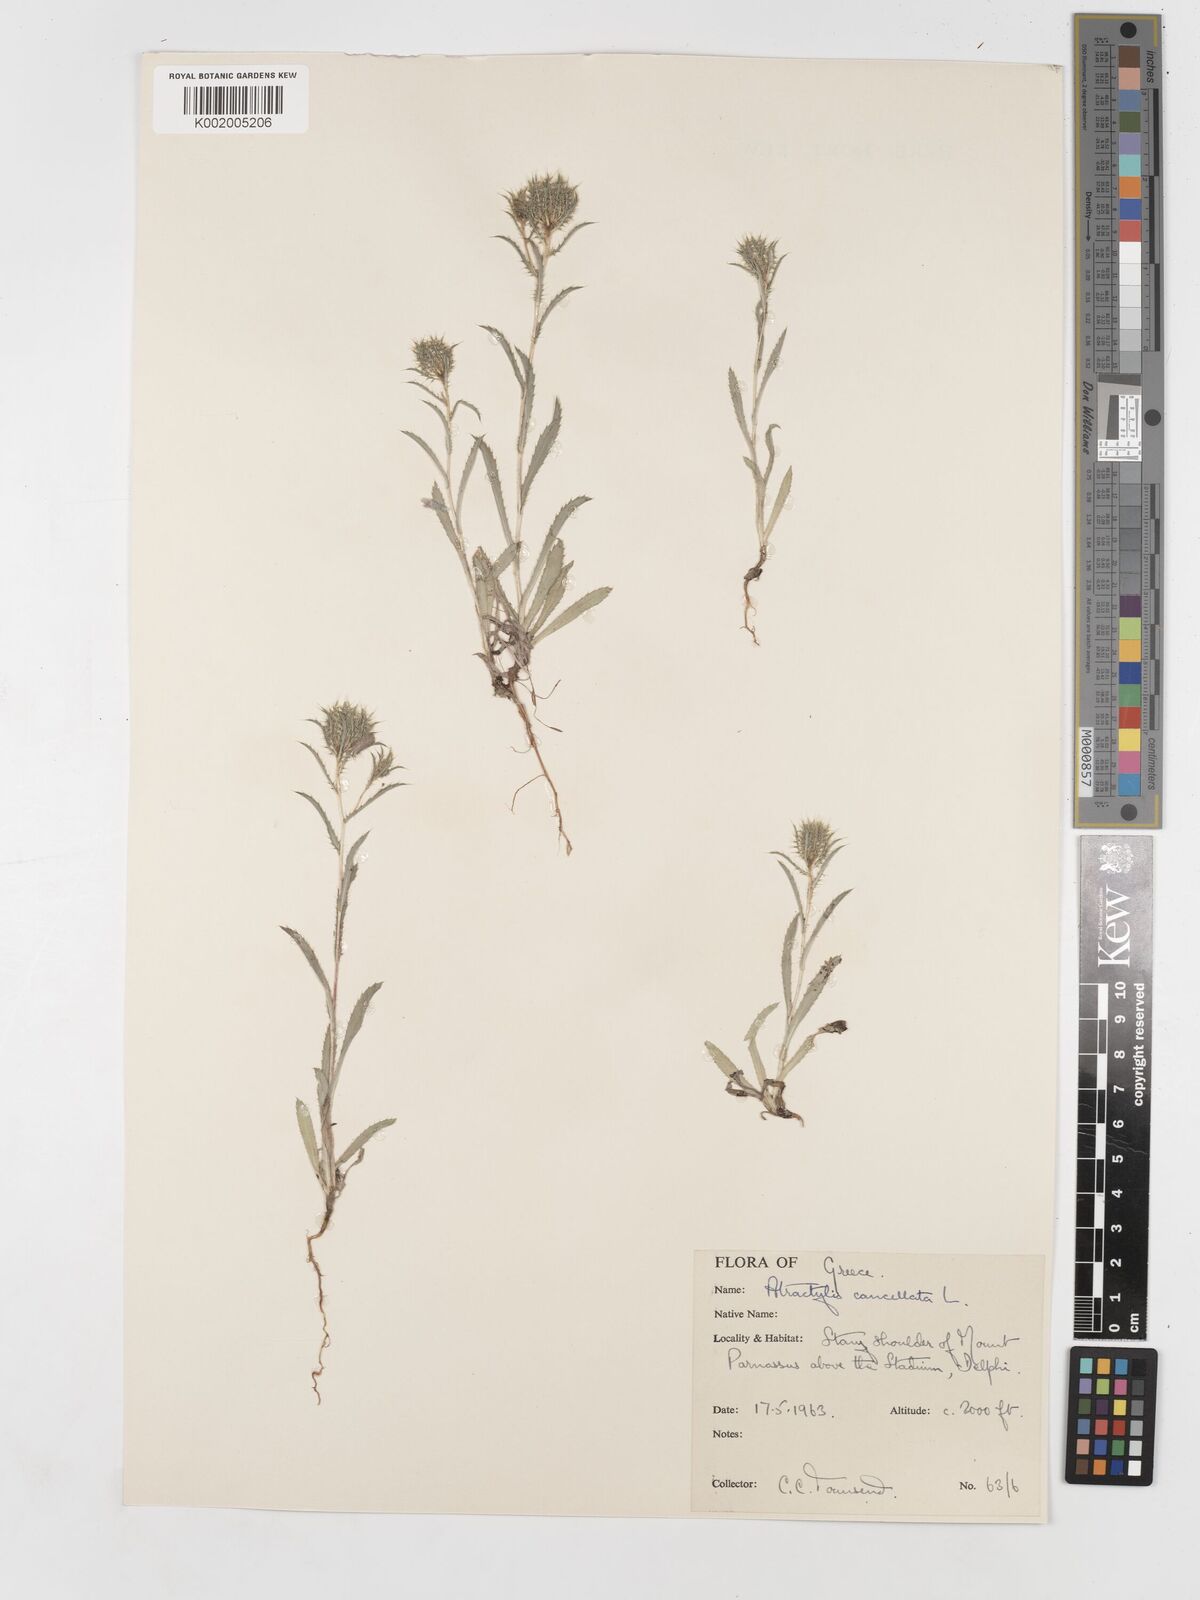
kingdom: Plantae
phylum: Tracheophyta
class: Magnoliopsida
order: Asterales
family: Asteraceae
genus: Atractylis
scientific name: Atractylis cancellata
